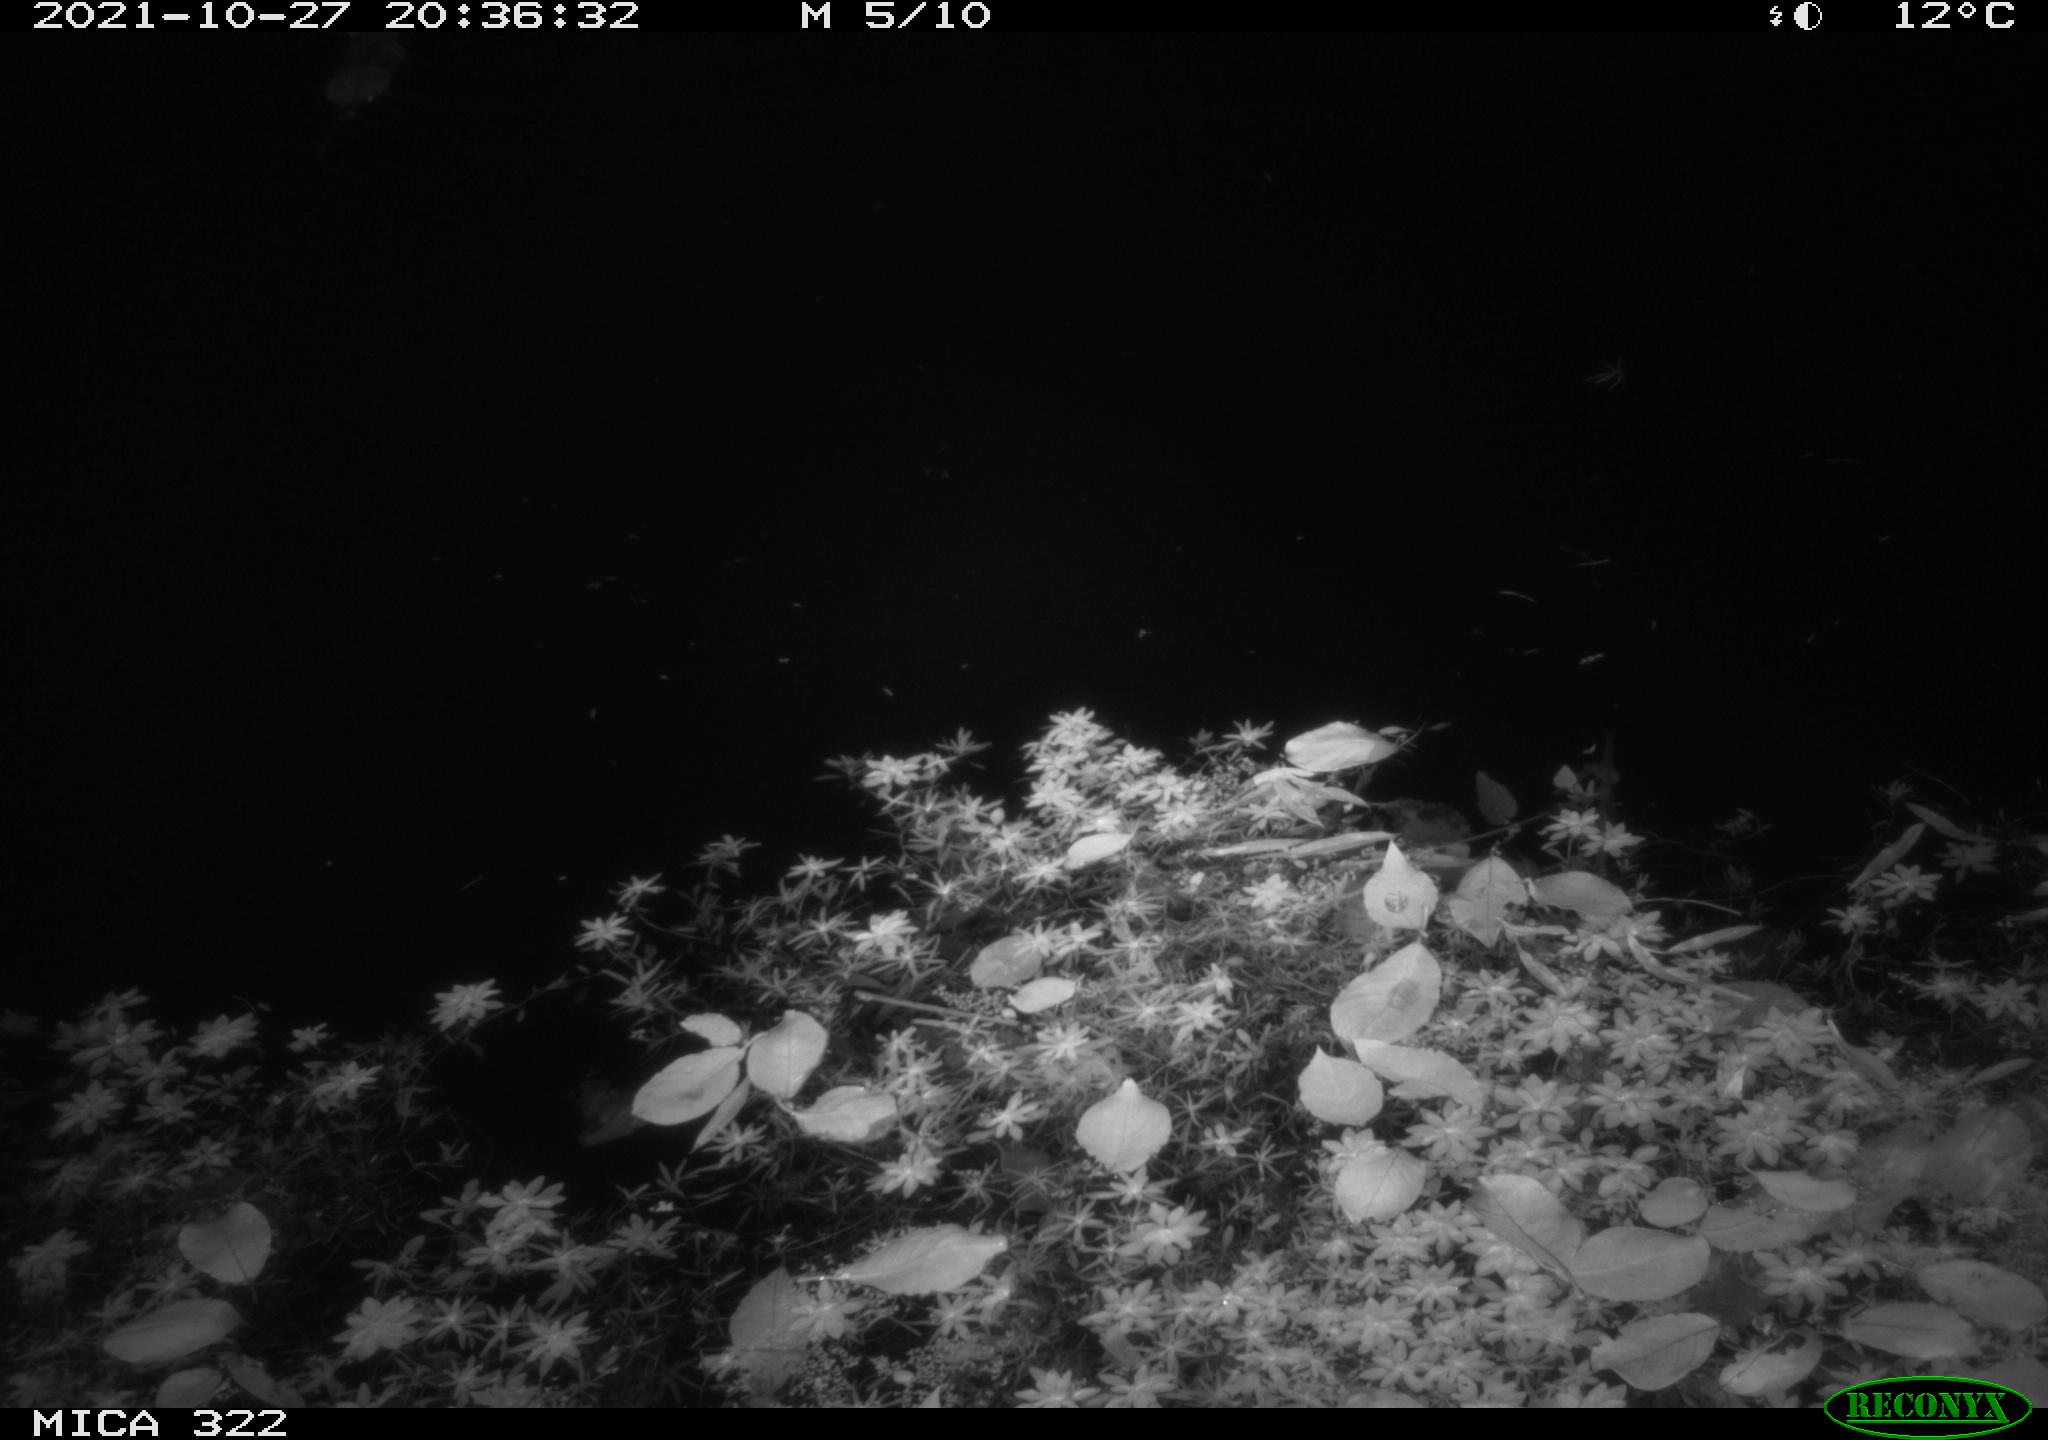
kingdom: Animalia
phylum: Chordata
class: Mammalia
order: Rodentia
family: Muridae
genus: Rattus
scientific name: Rattus norvegicus
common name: Brown rat
